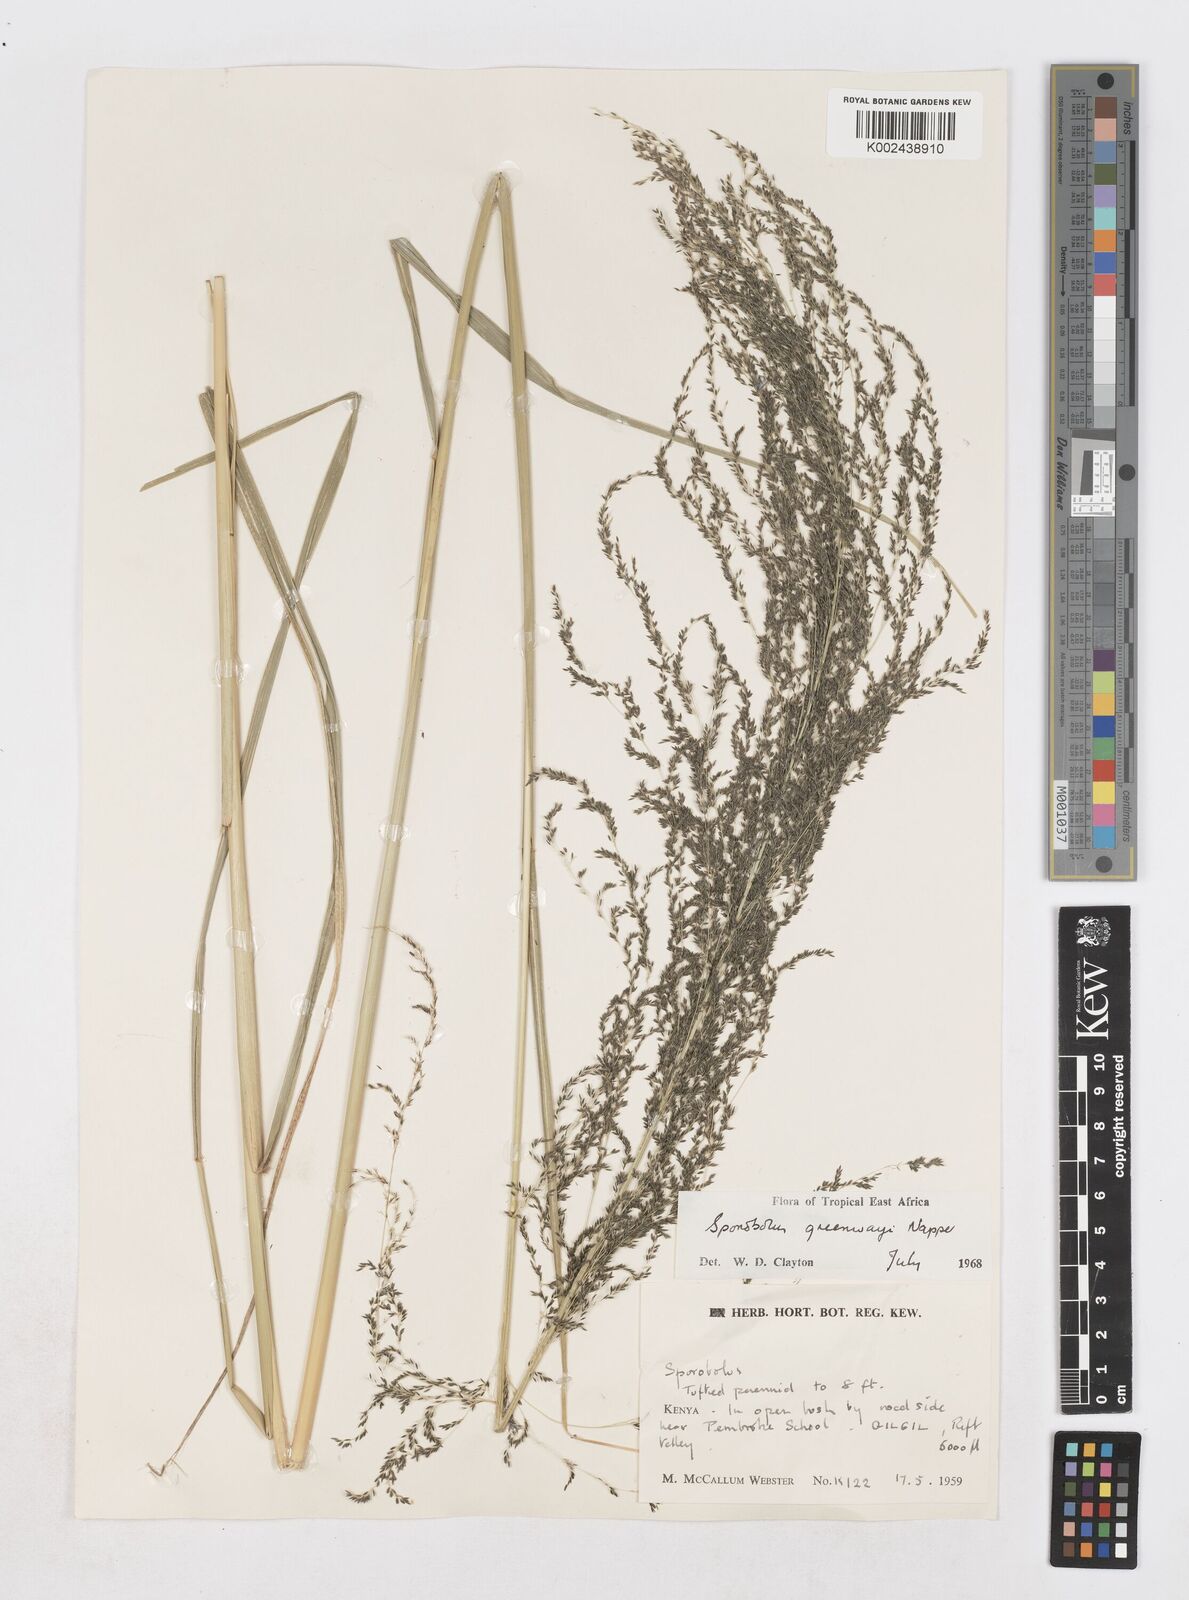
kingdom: Plantae
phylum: Tracheophyta
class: Liliopsida
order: Poales
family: Poaceae
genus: Sporobolus
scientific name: Sporobolus macranthelus
